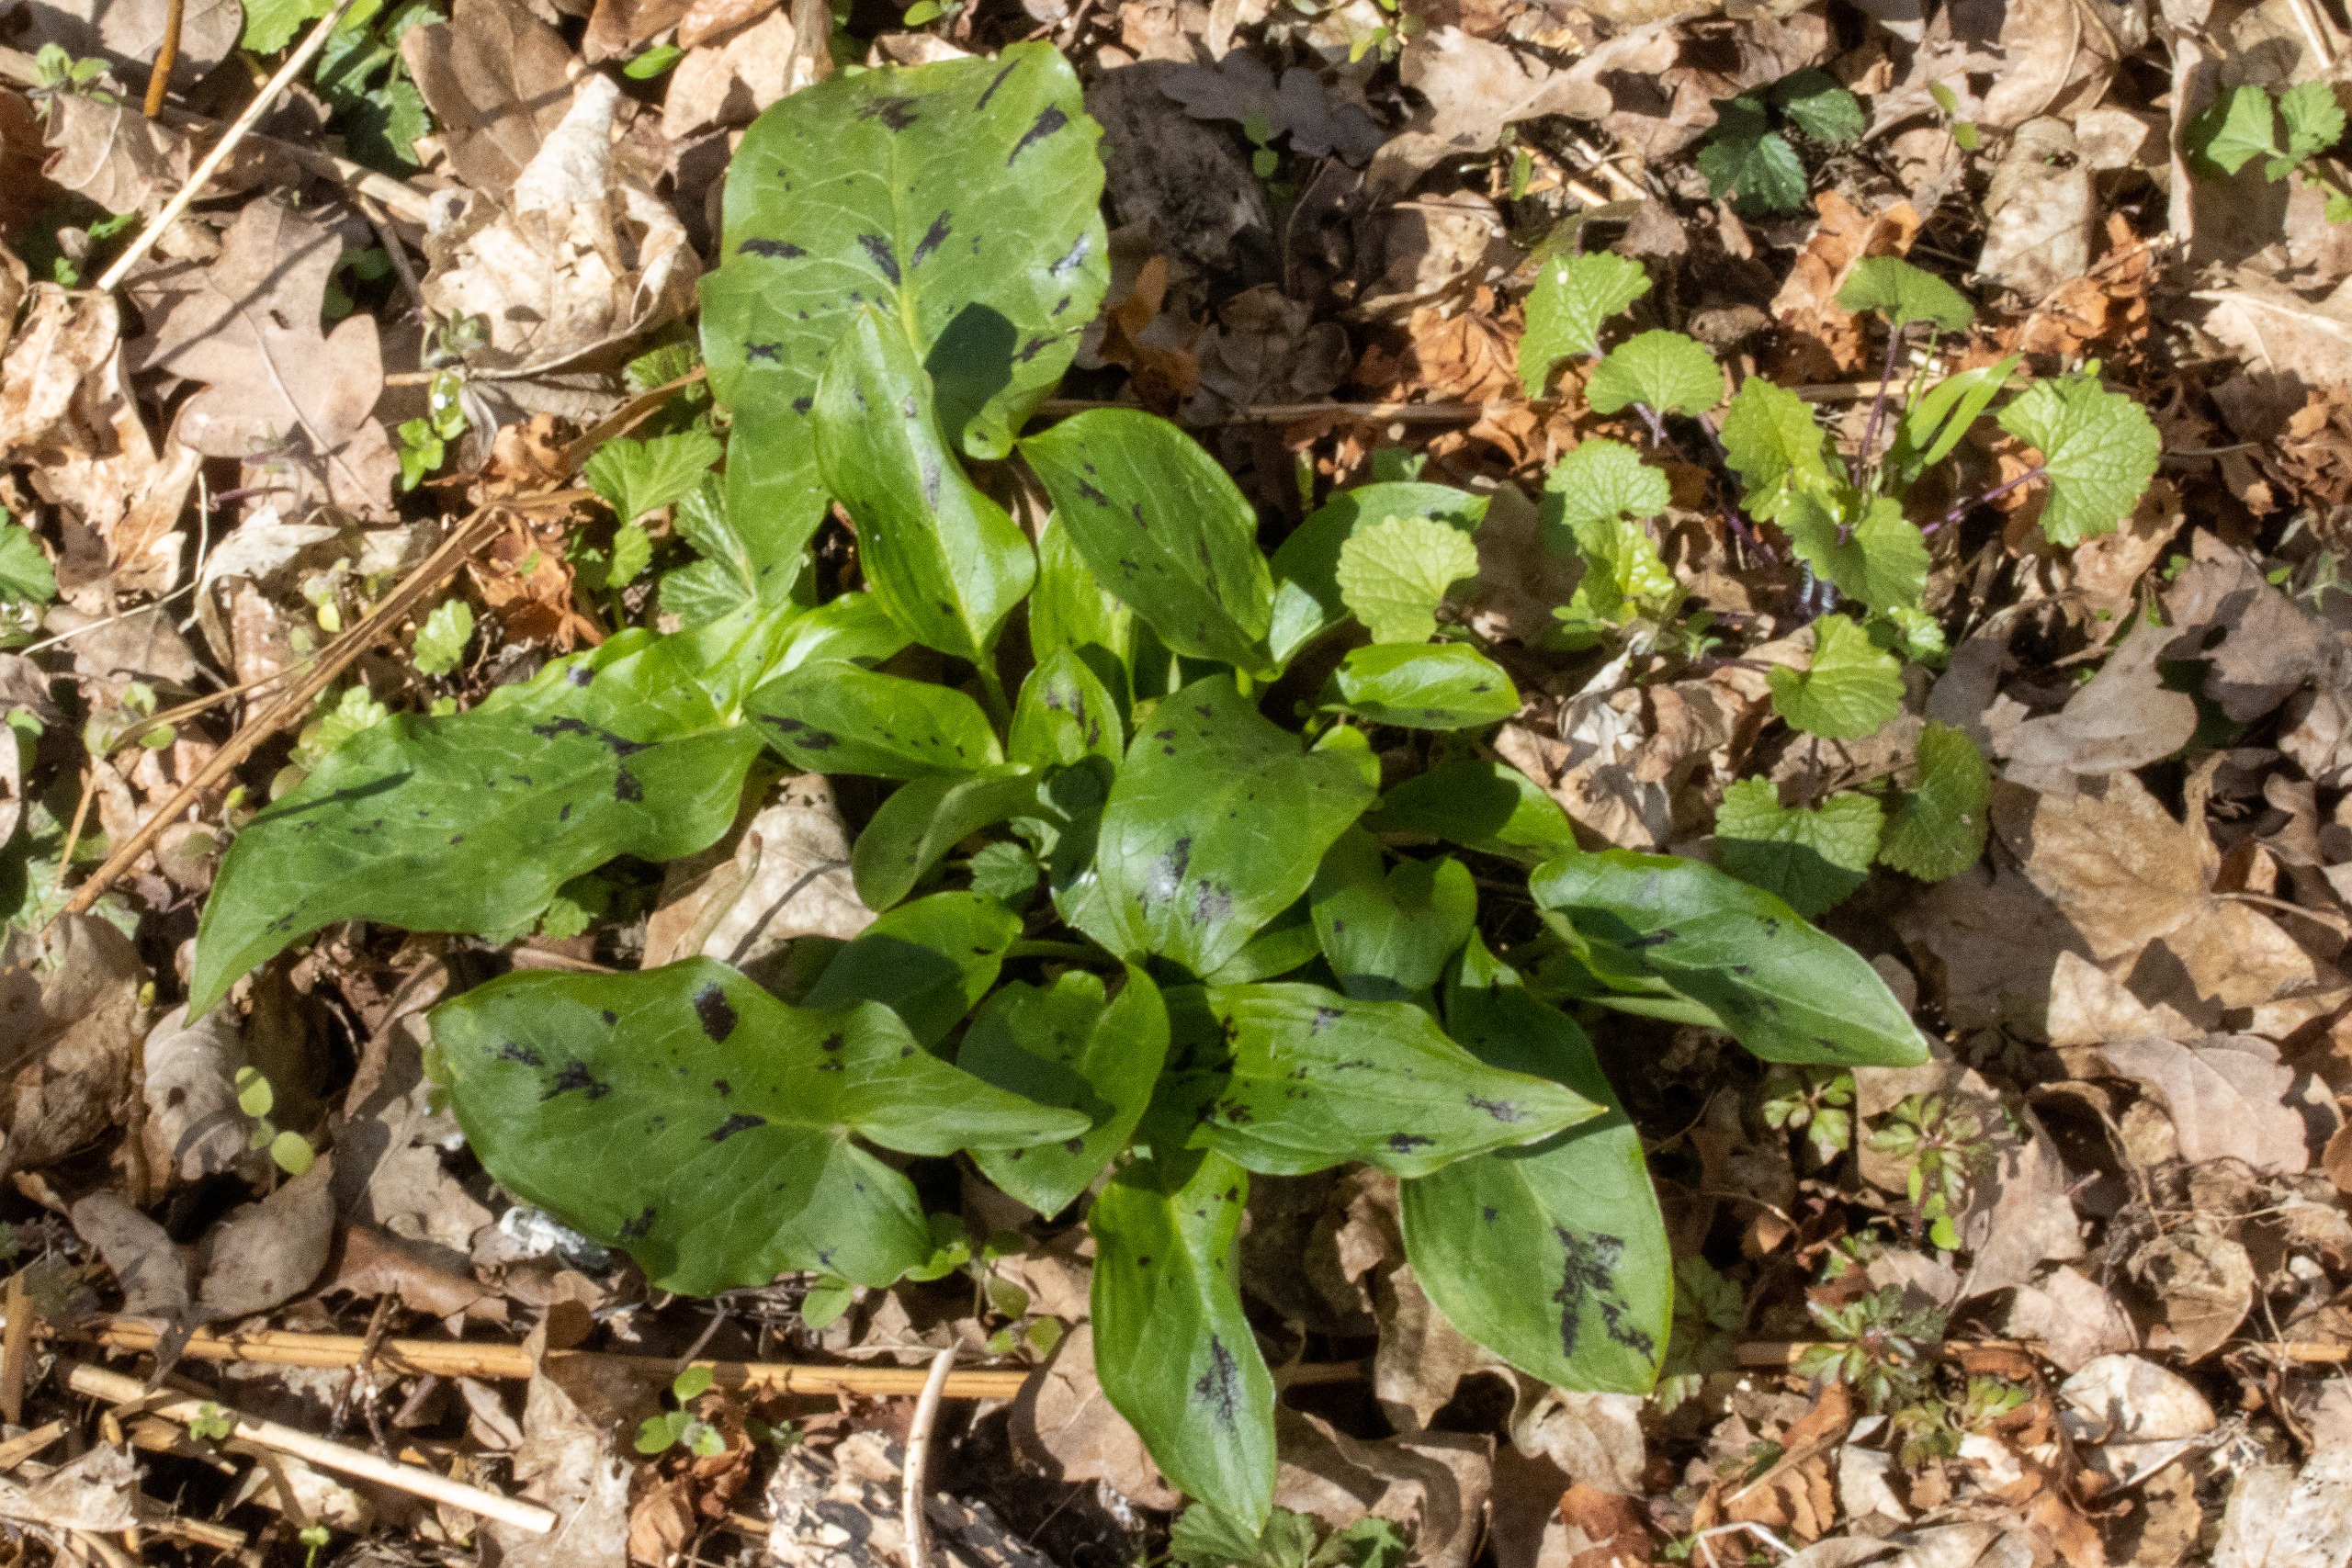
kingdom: Plantae
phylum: Tracheophyta
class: Liliopsida
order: Alismatales
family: Araceae
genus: Arum
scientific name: Arum maculatum
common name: Plettet arum
